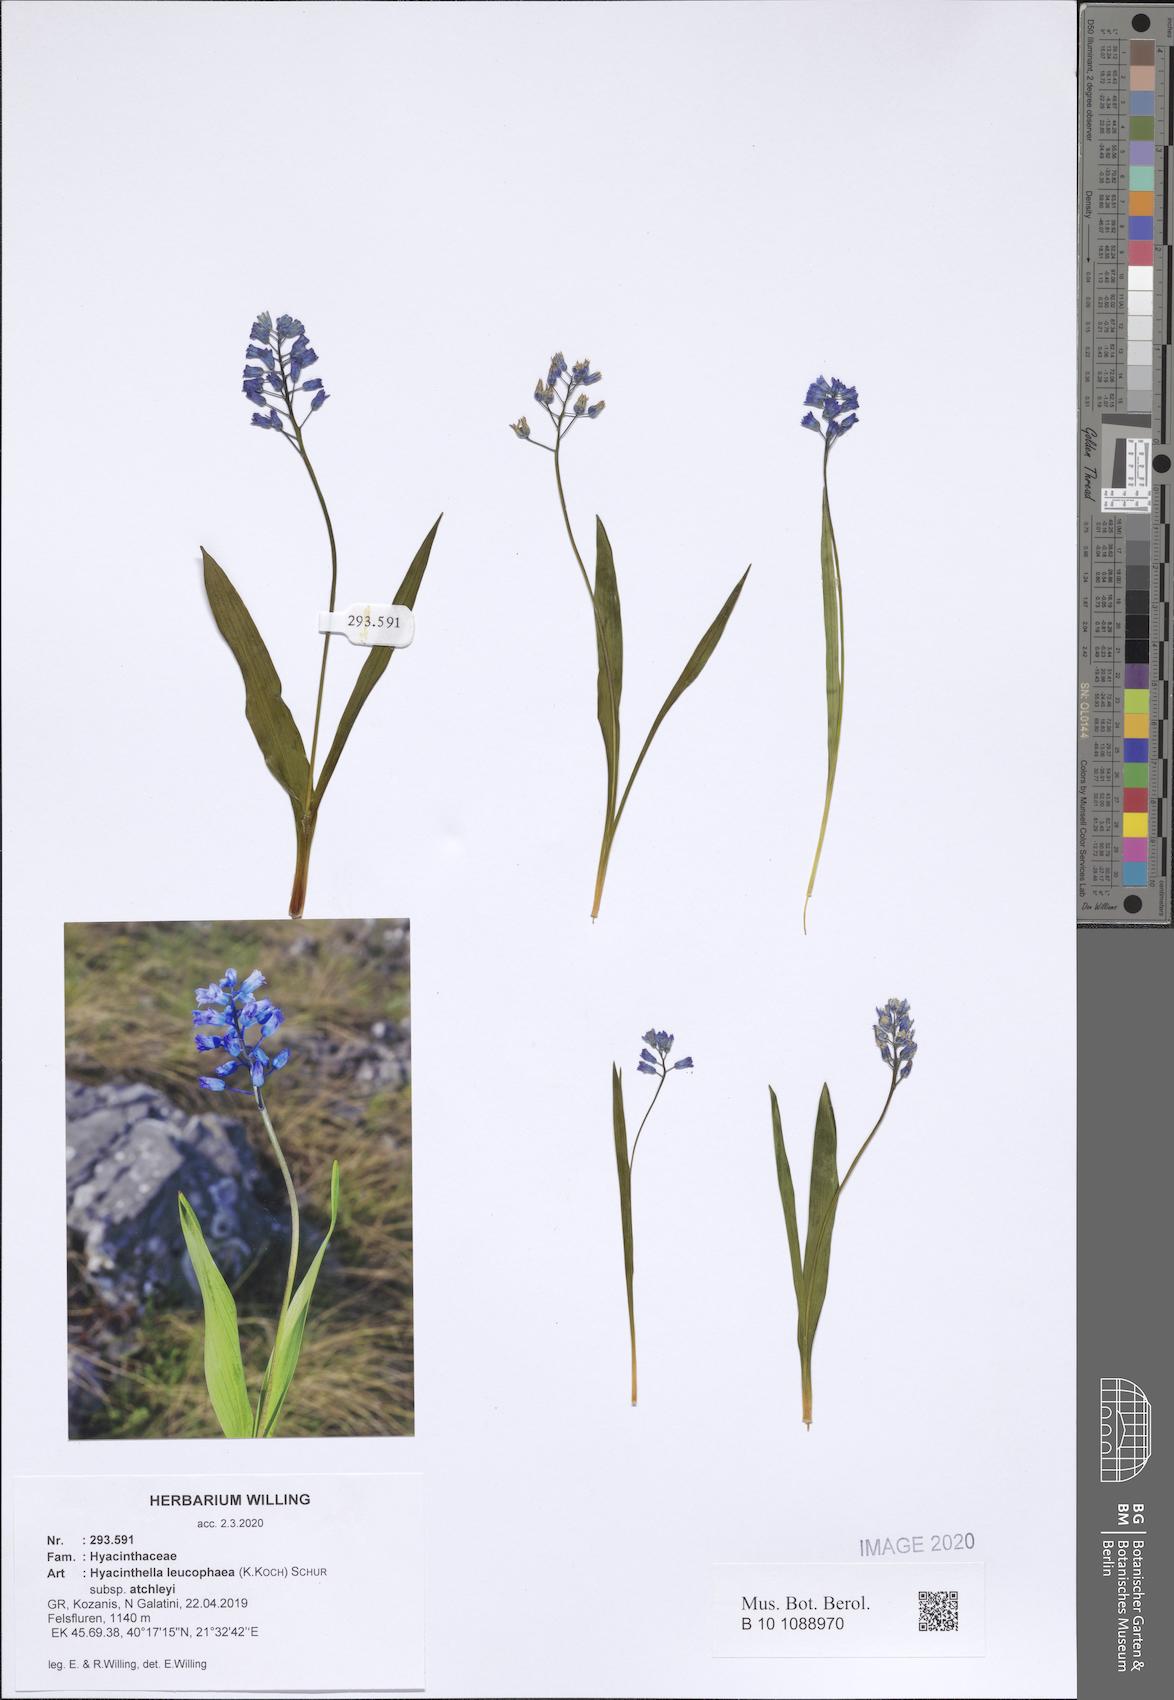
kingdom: Plantae
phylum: Tracheophyta
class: Liliopsida
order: Asparagales
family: Asparagaceae
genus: Hyacinthella
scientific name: Hyacinthella leucophaea
